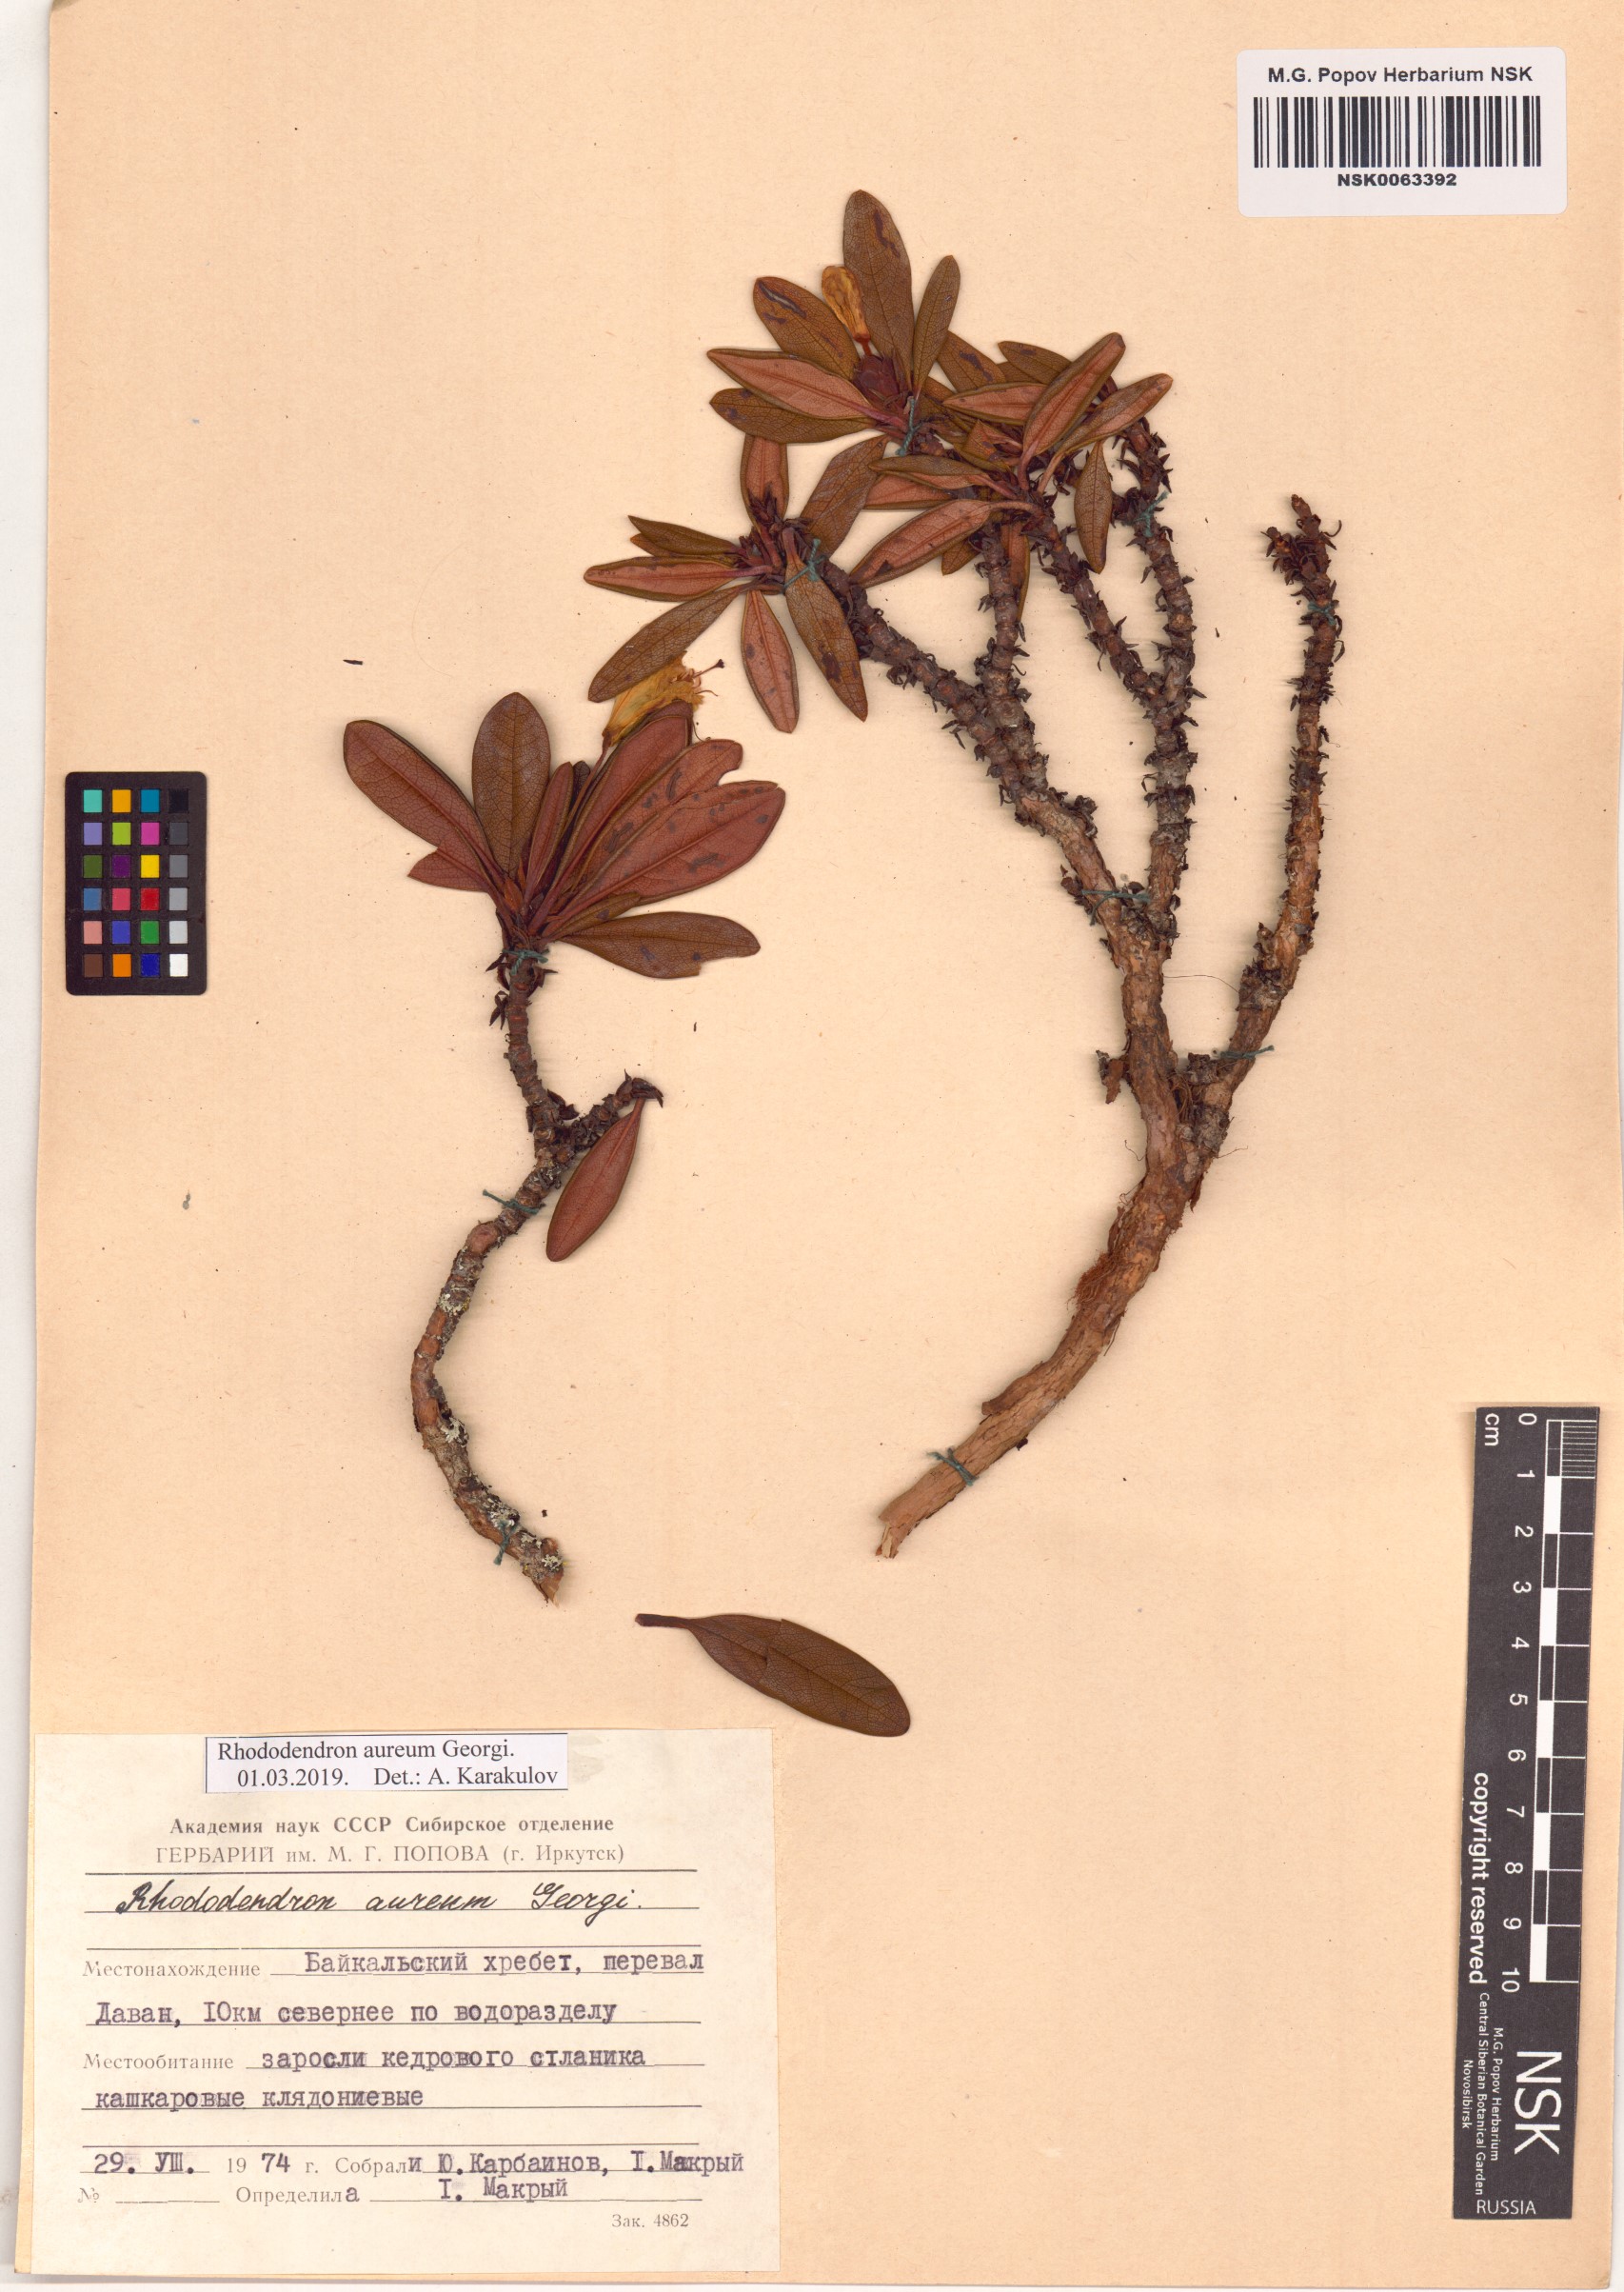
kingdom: Plantae
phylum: Tracheophyta
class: Magnoliopsida
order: Ericales
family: Ericaceae
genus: Rhododendron
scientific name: Rhododendron aureum
